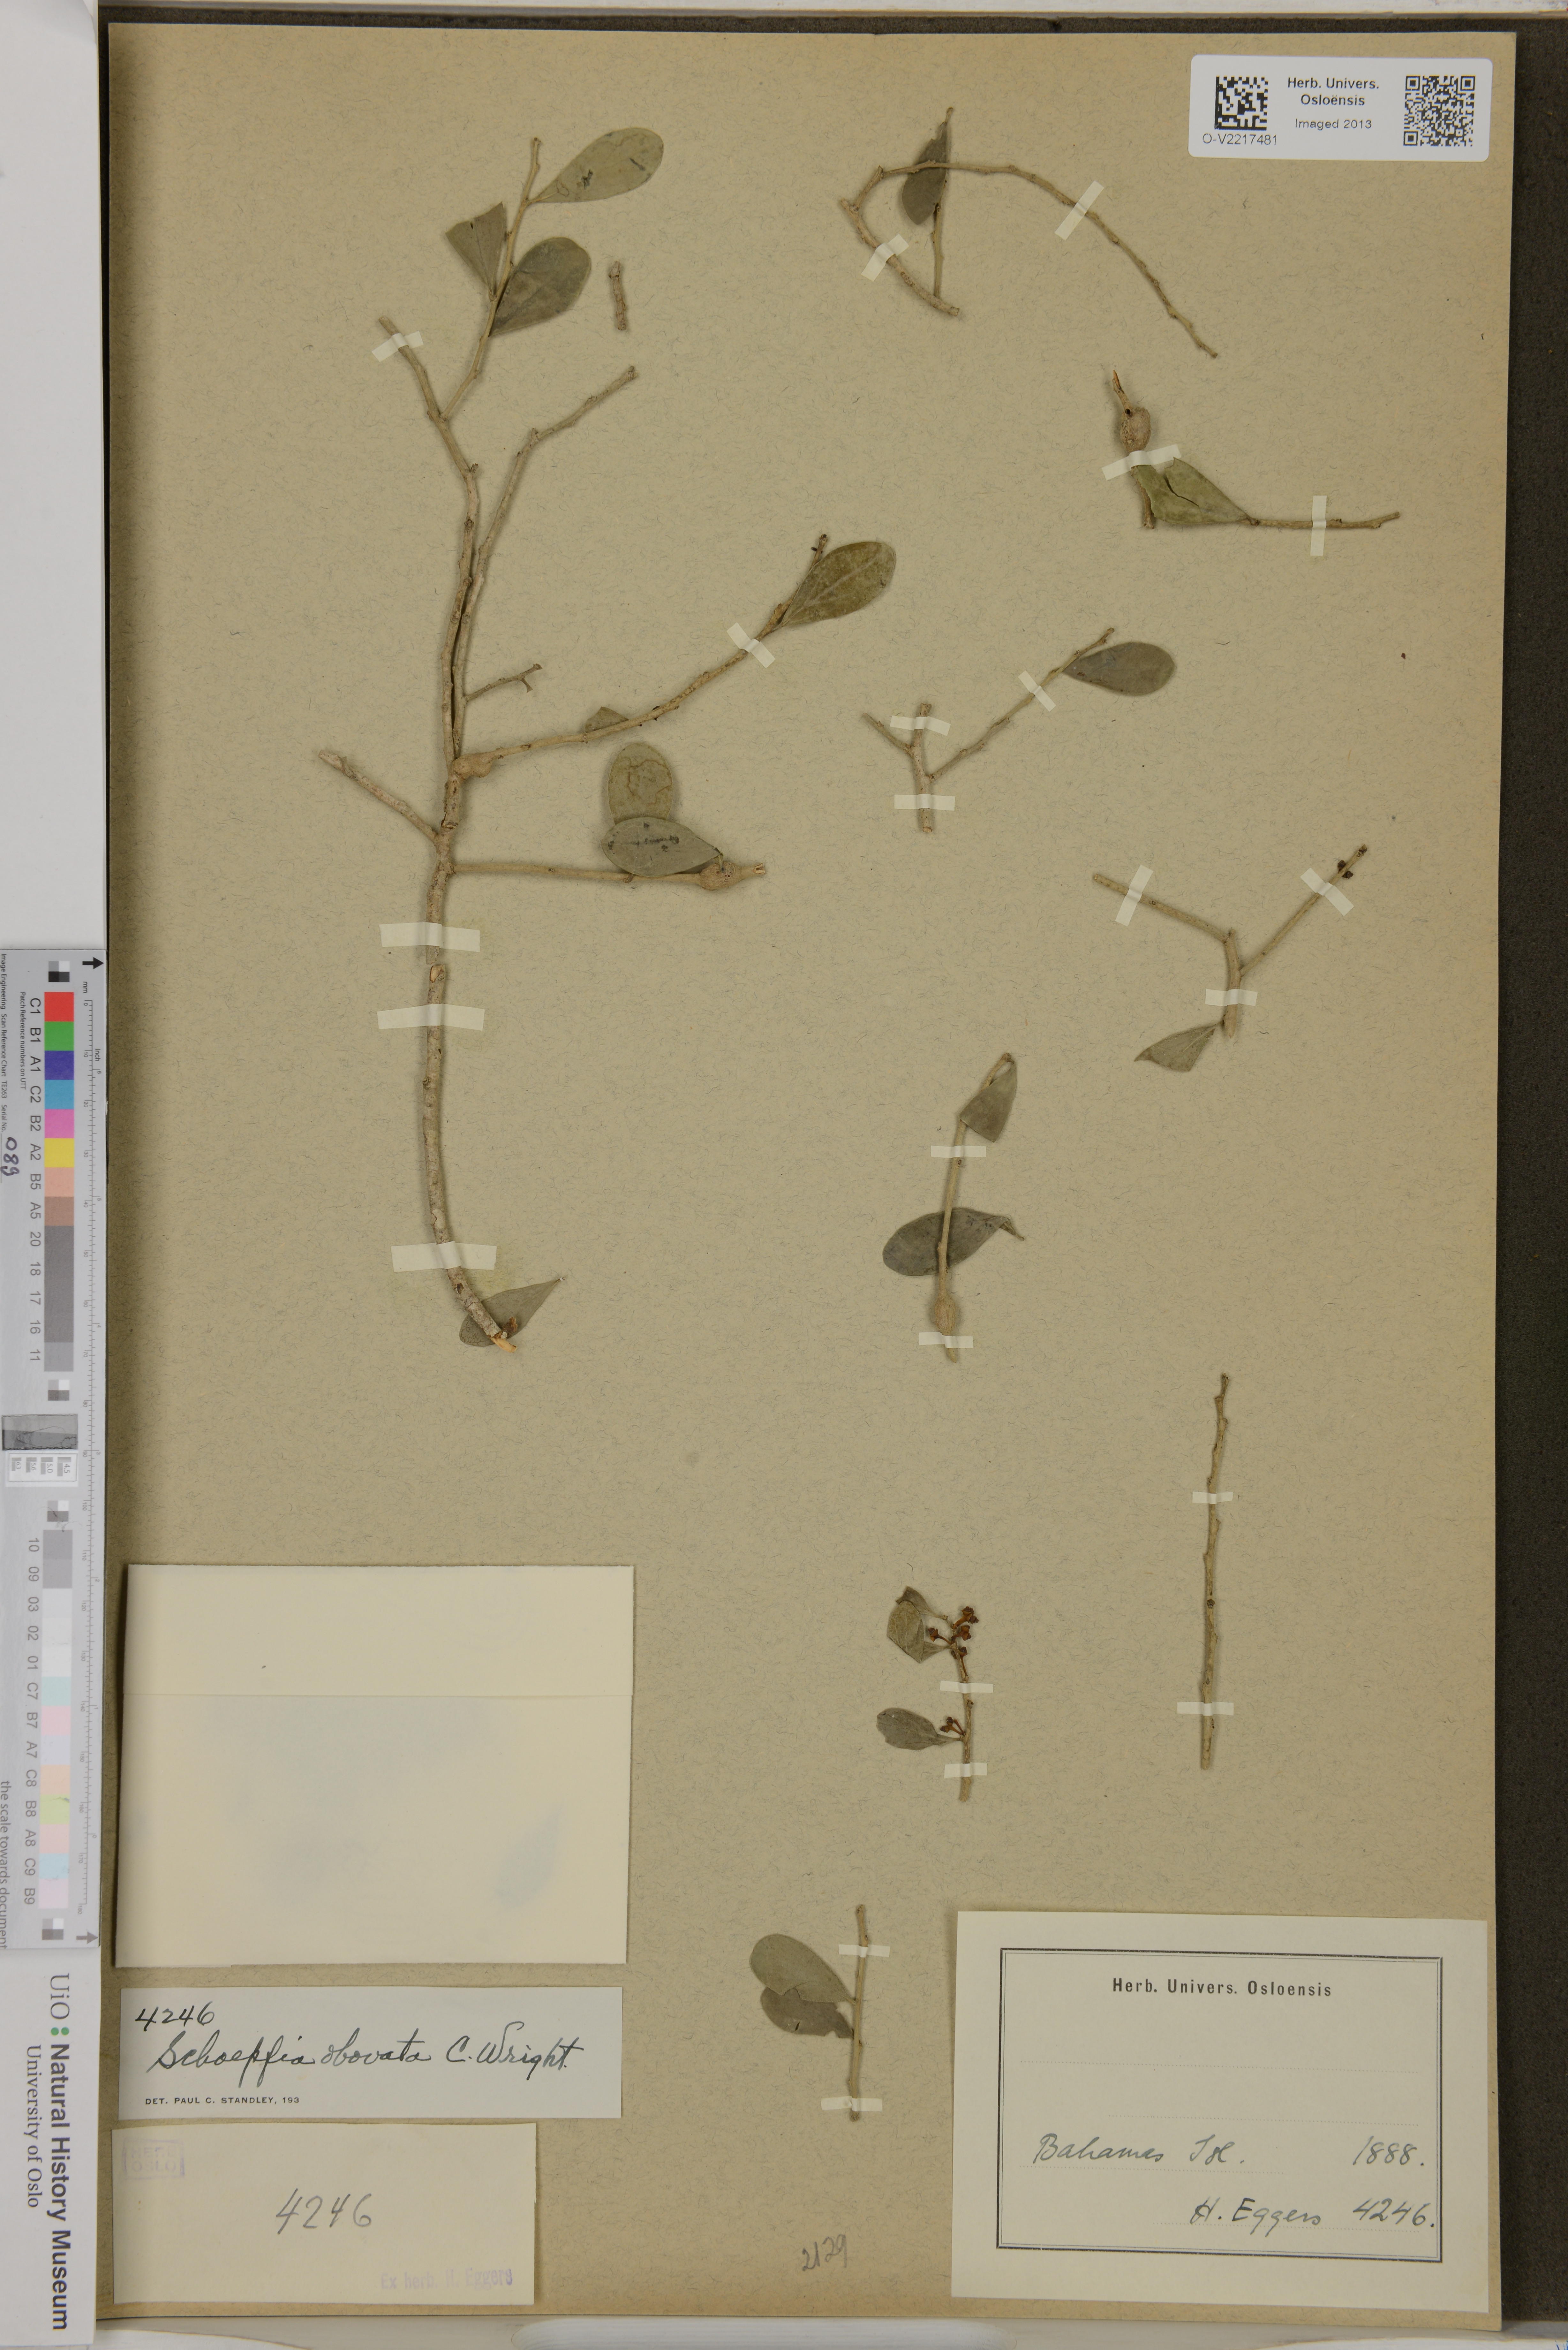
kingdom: Plantae
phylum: Tracheophyta
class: Magnoliopsida
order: Santalales
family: Schoepfiaceae
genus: Schoepfia
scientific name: Schoepfia obovata
